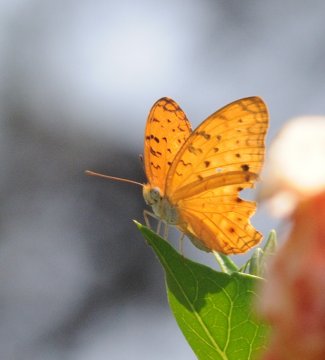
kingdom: Animalia
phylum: Arthropoda
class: Insecta
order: Lepidoptera
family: Nymphalidae
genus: Phalanta
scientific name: Phalanta phalantha
